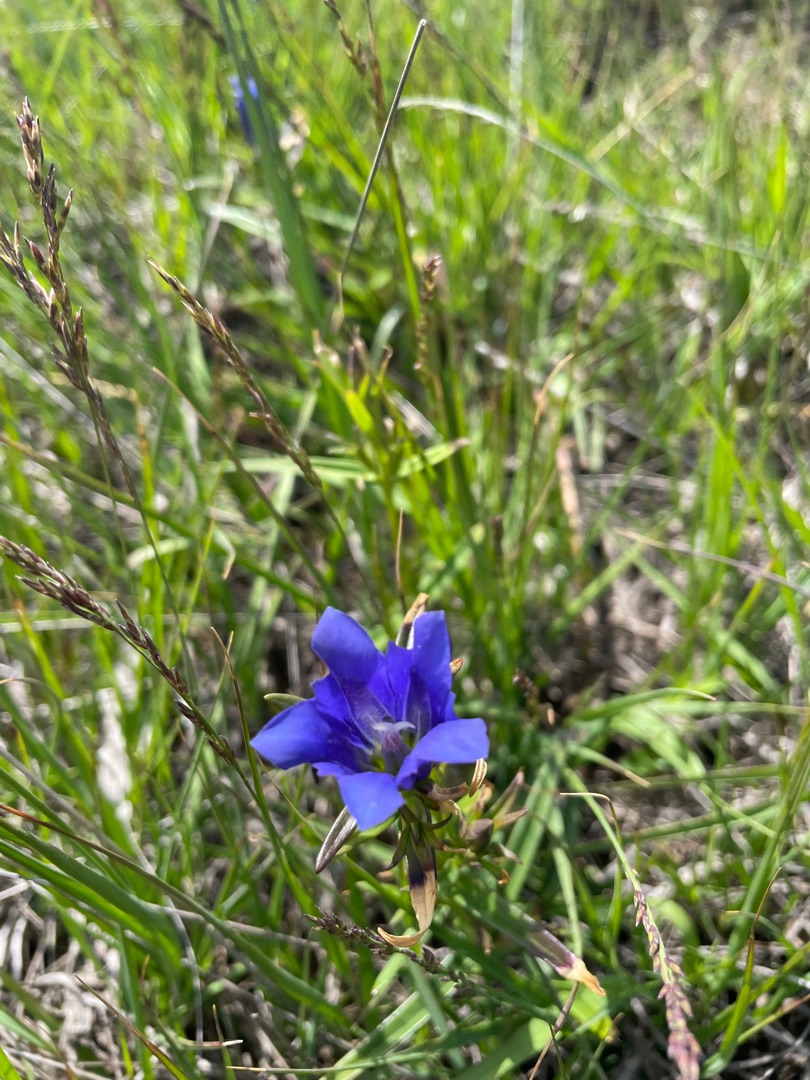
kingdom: Plantae
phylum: Tracheophyta
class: Magnoliopsida
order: Gentianales
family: Gentianaceae
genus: Gentiana
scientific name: Gentiana pneumonanthe
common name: Klokke-ensian
